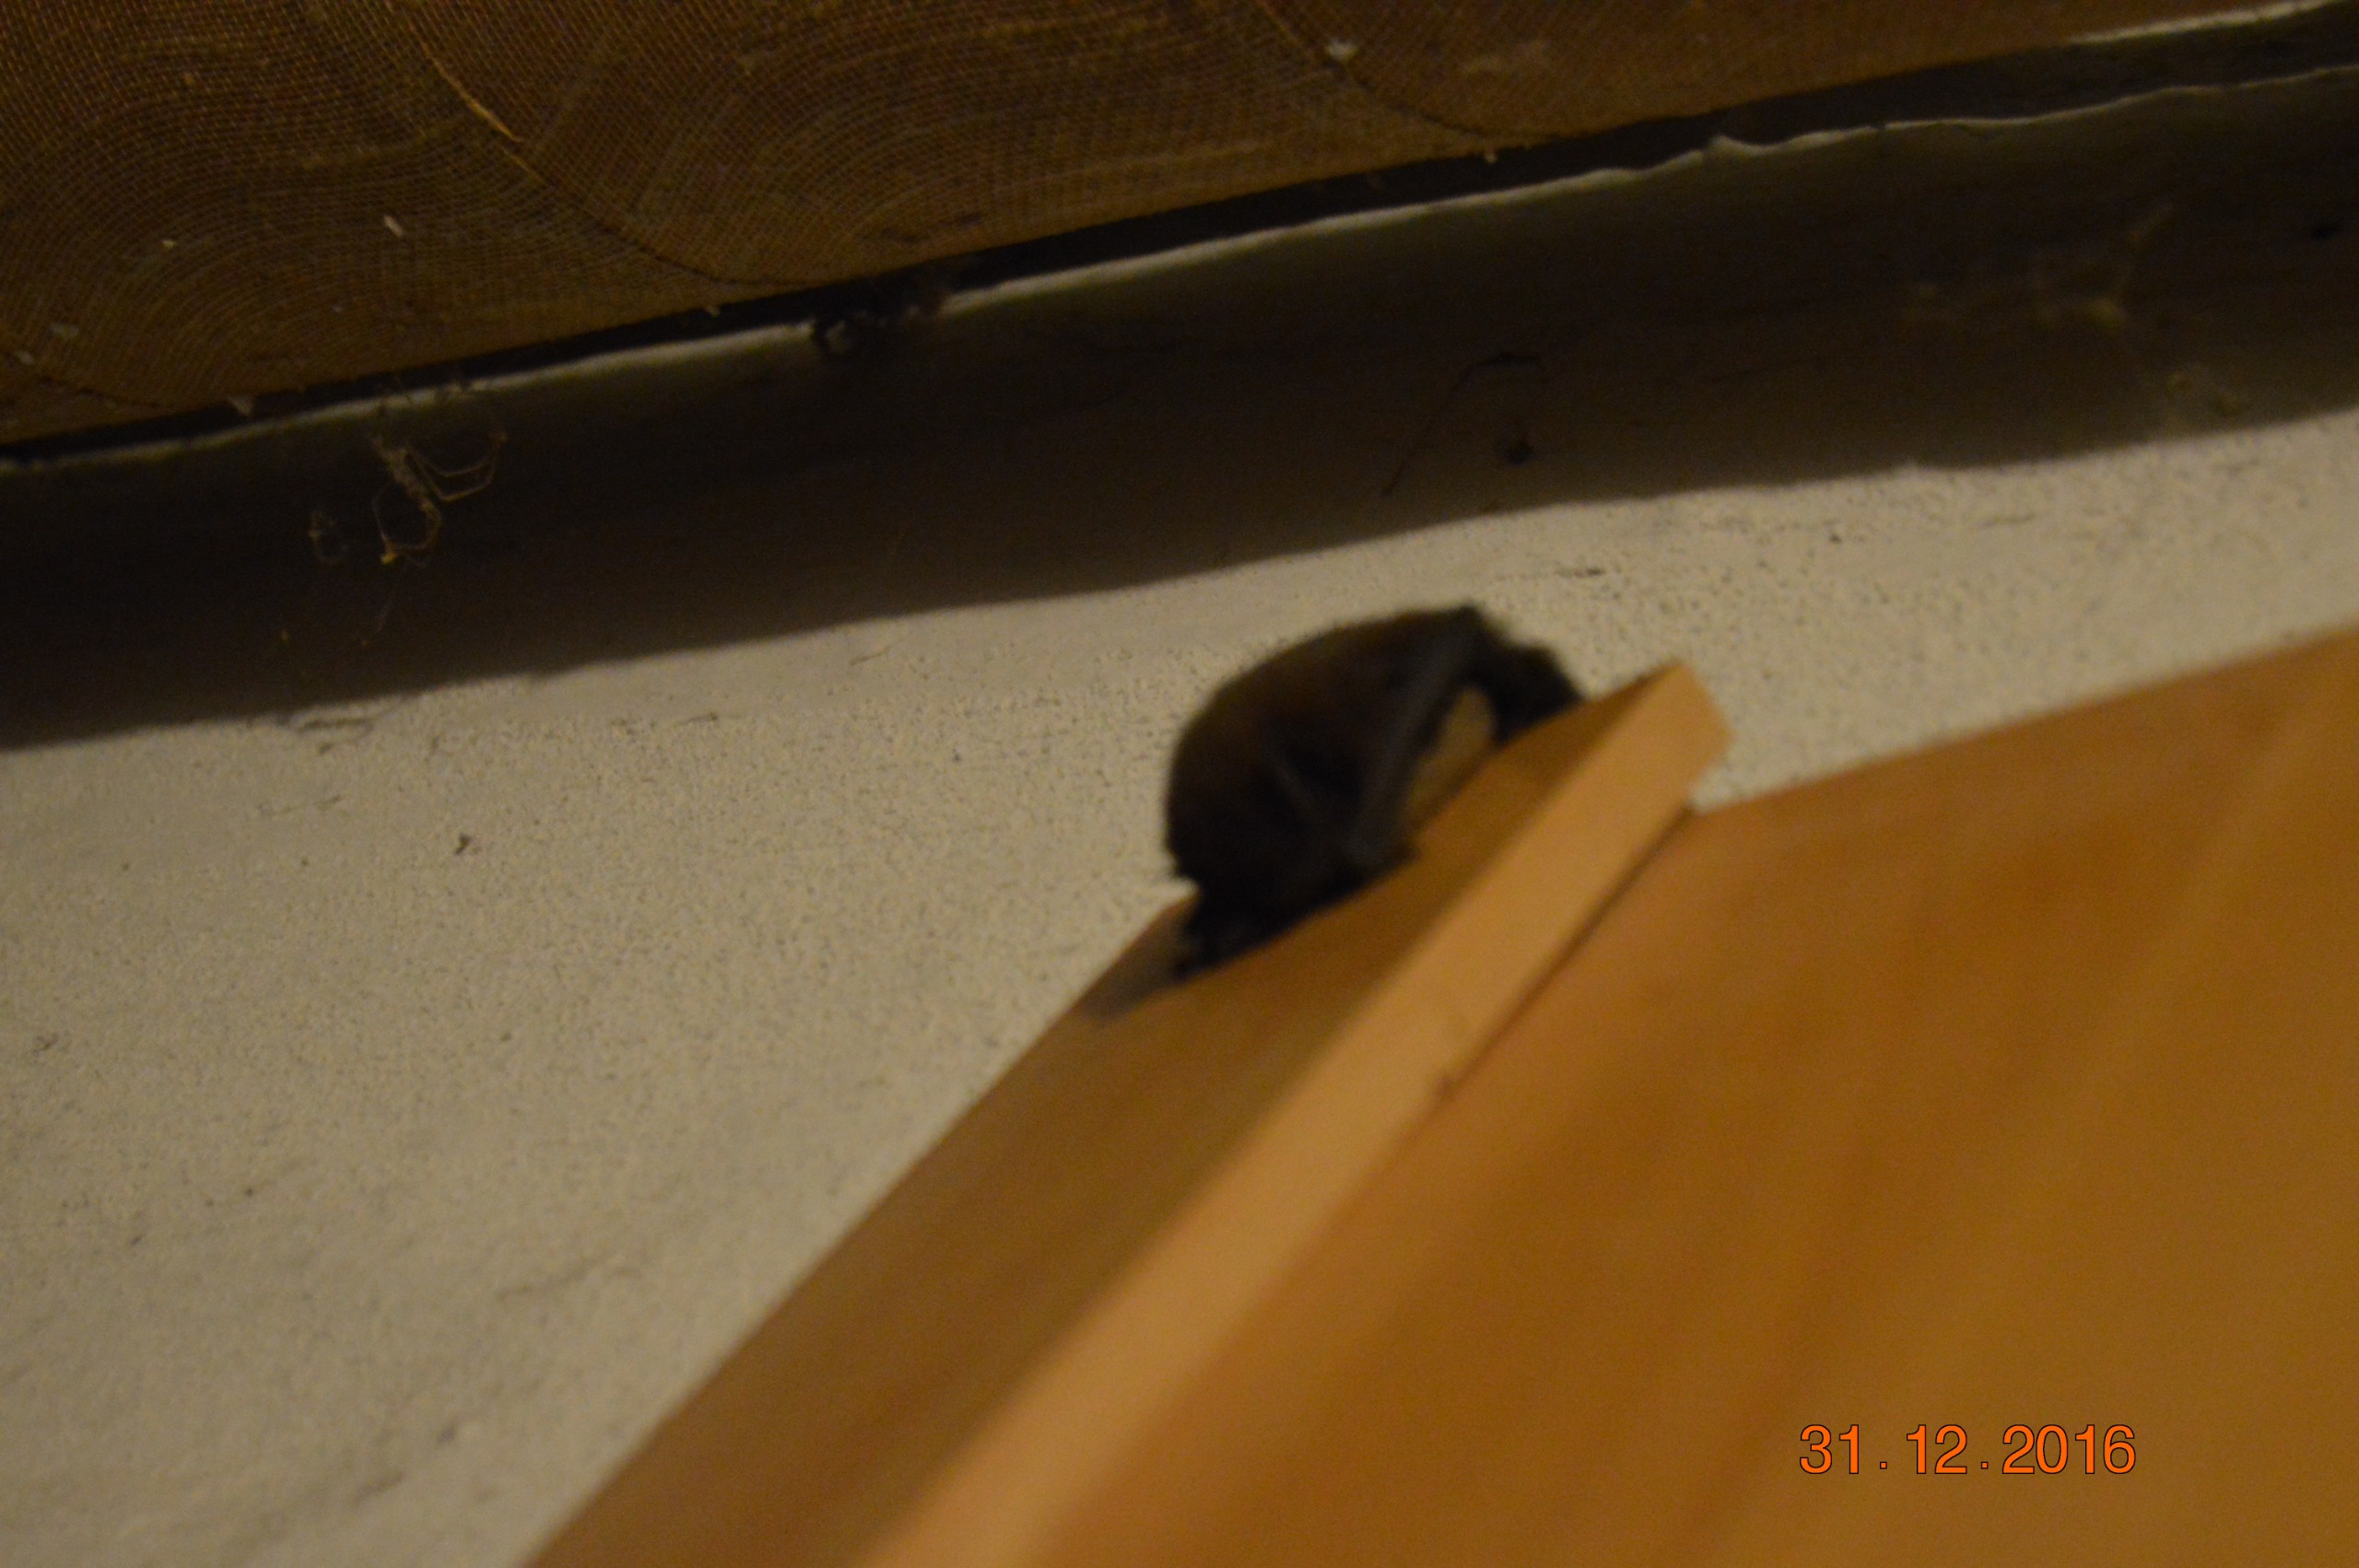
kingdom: Animalia
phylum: Chordata
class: Mammalia
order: Chiroptera
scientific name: Chiroptera
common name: Flagermus
